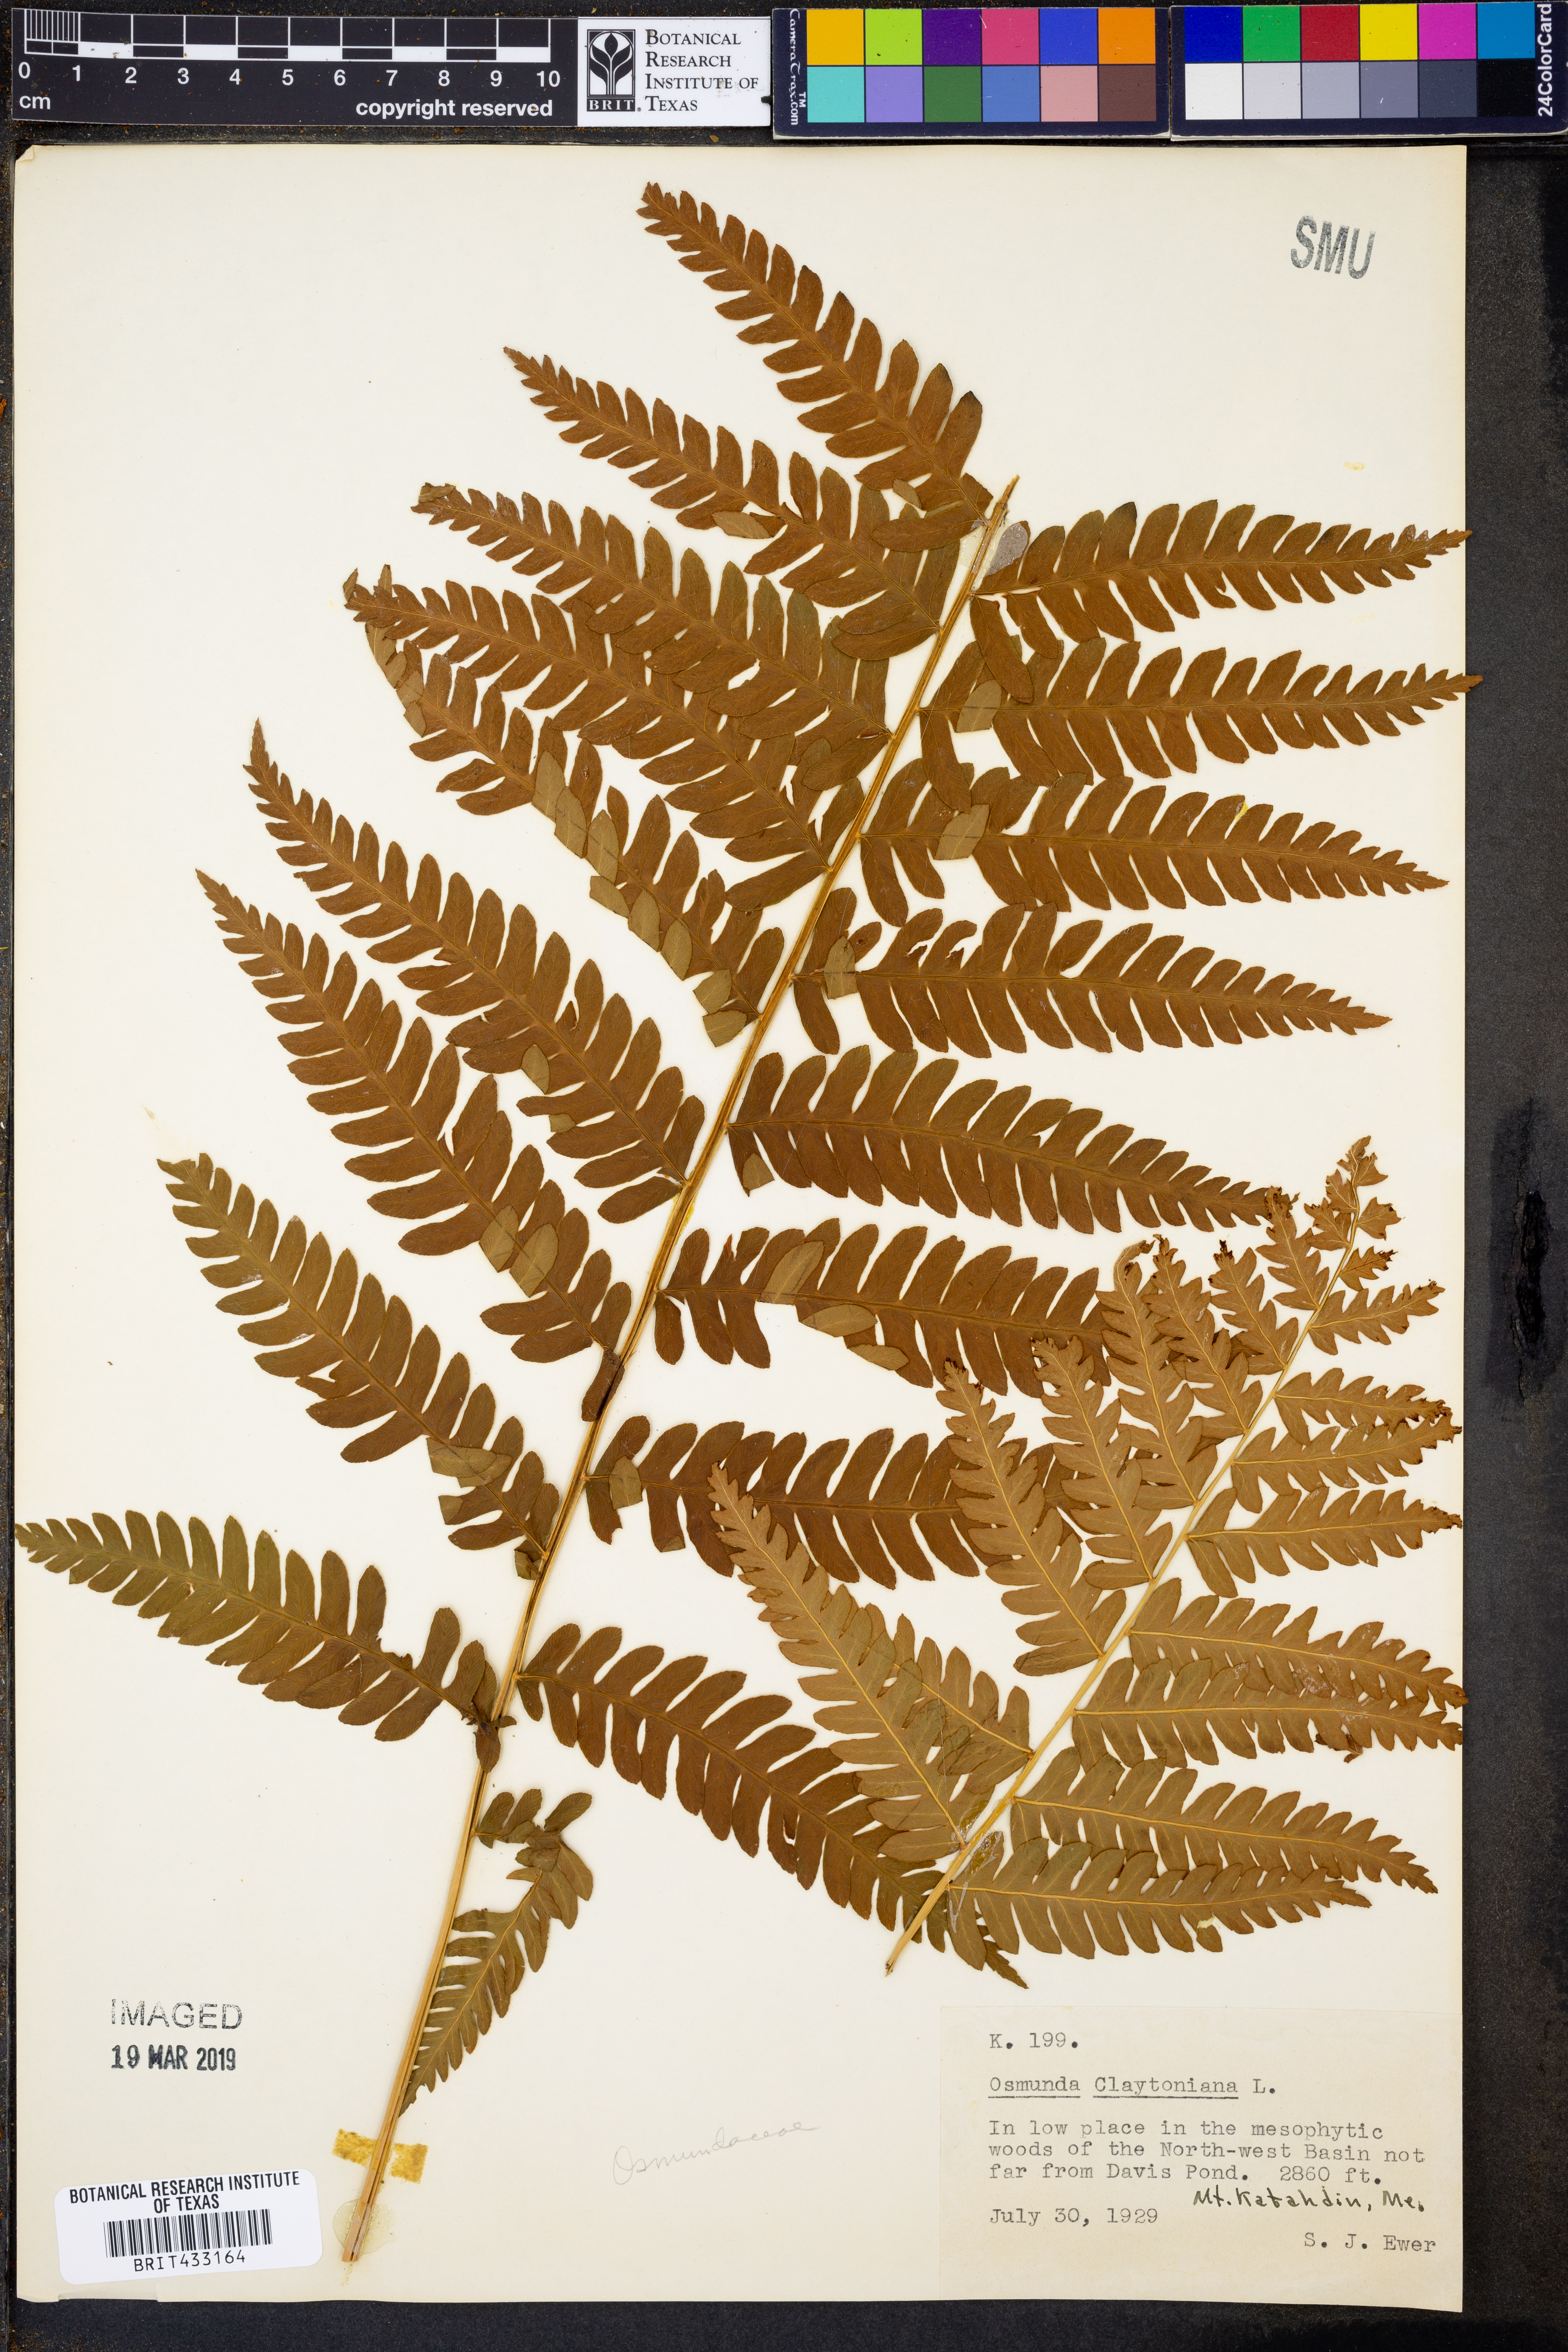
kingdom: Plantae
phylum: Tracheophyta
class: Polypodiopsida
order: Osmundales
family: Osmundaceae
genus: Claytosmunda
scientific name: Claytosmunda claytoniana
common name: Clayton's fern
